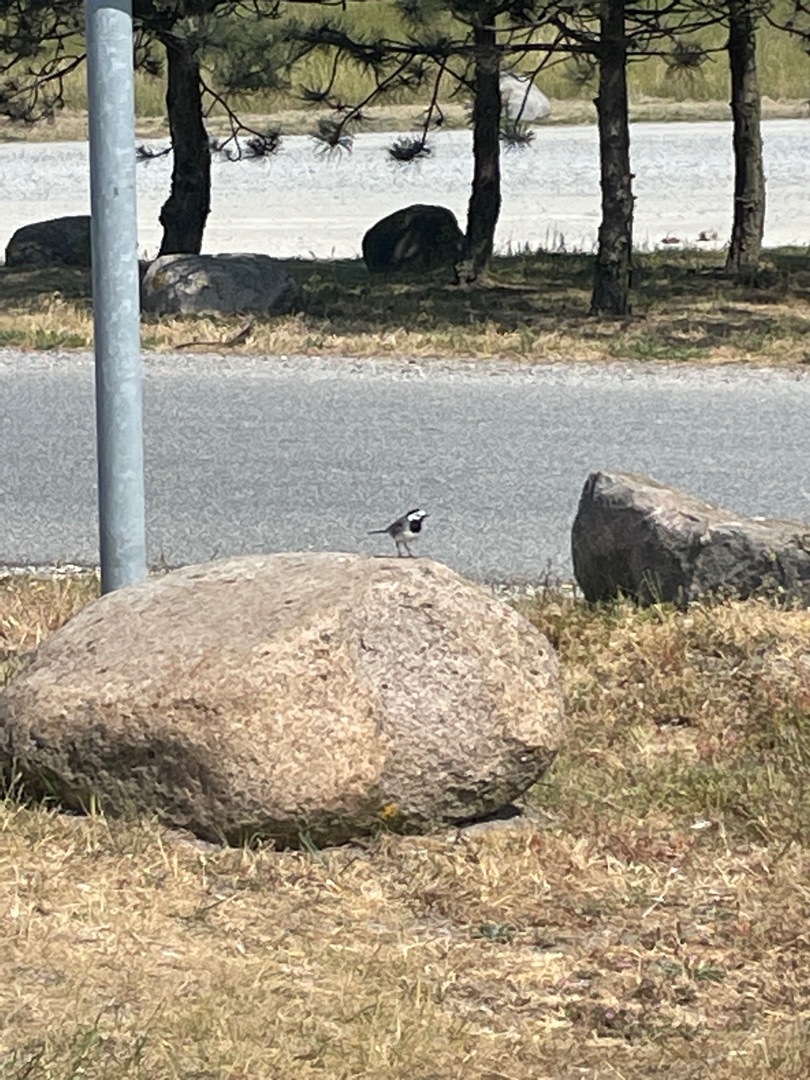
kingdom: Animalia
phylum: Chordata
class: Aves
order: Passeriformes
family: Motacillidae
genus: Motacilla
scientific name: Motacilla alba
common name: Hvid vipstjert
